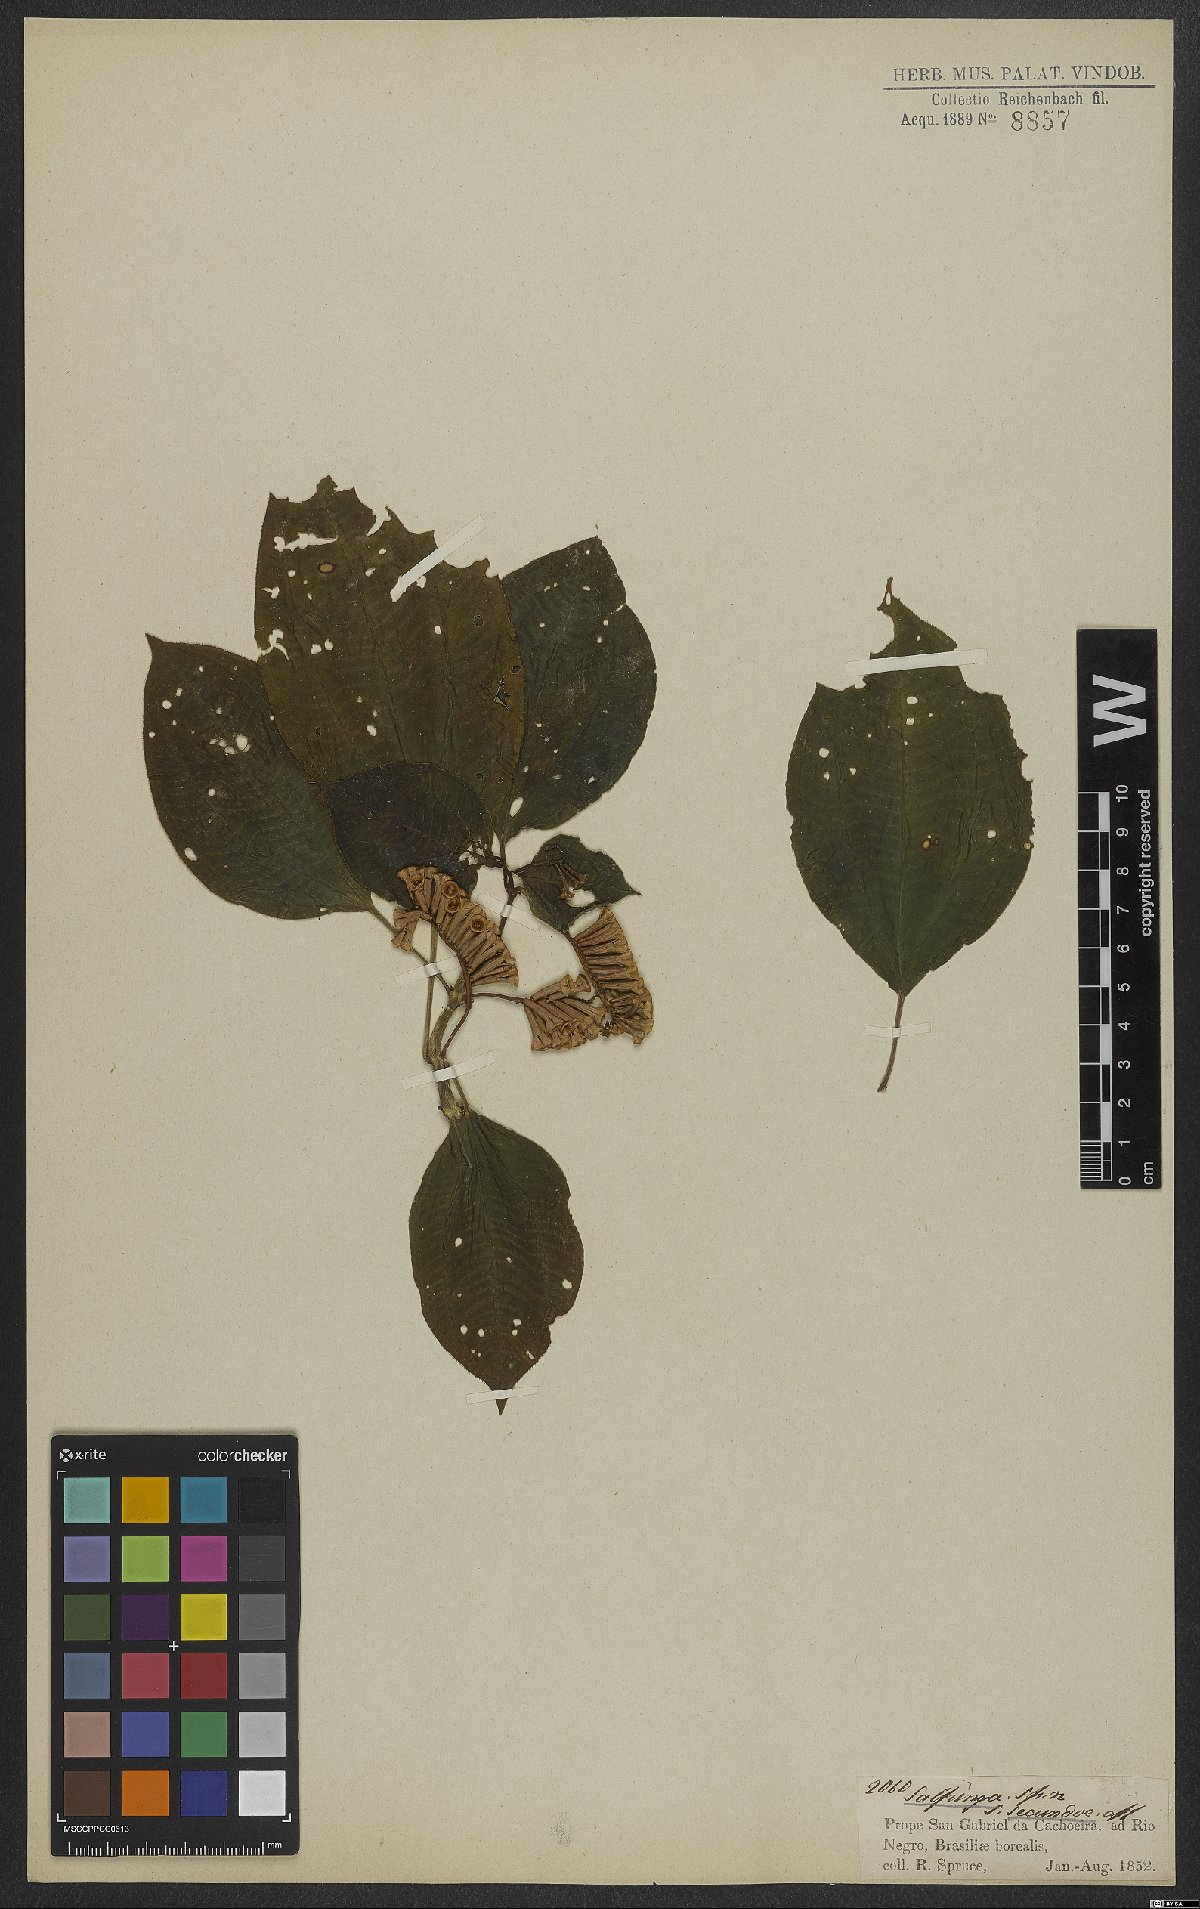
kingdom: Plantae
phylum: Tracheophyta
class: Magnoliopsida
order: Myrtales
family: Melastomataceae
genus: Salpinga
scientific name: Salpinga secunda
